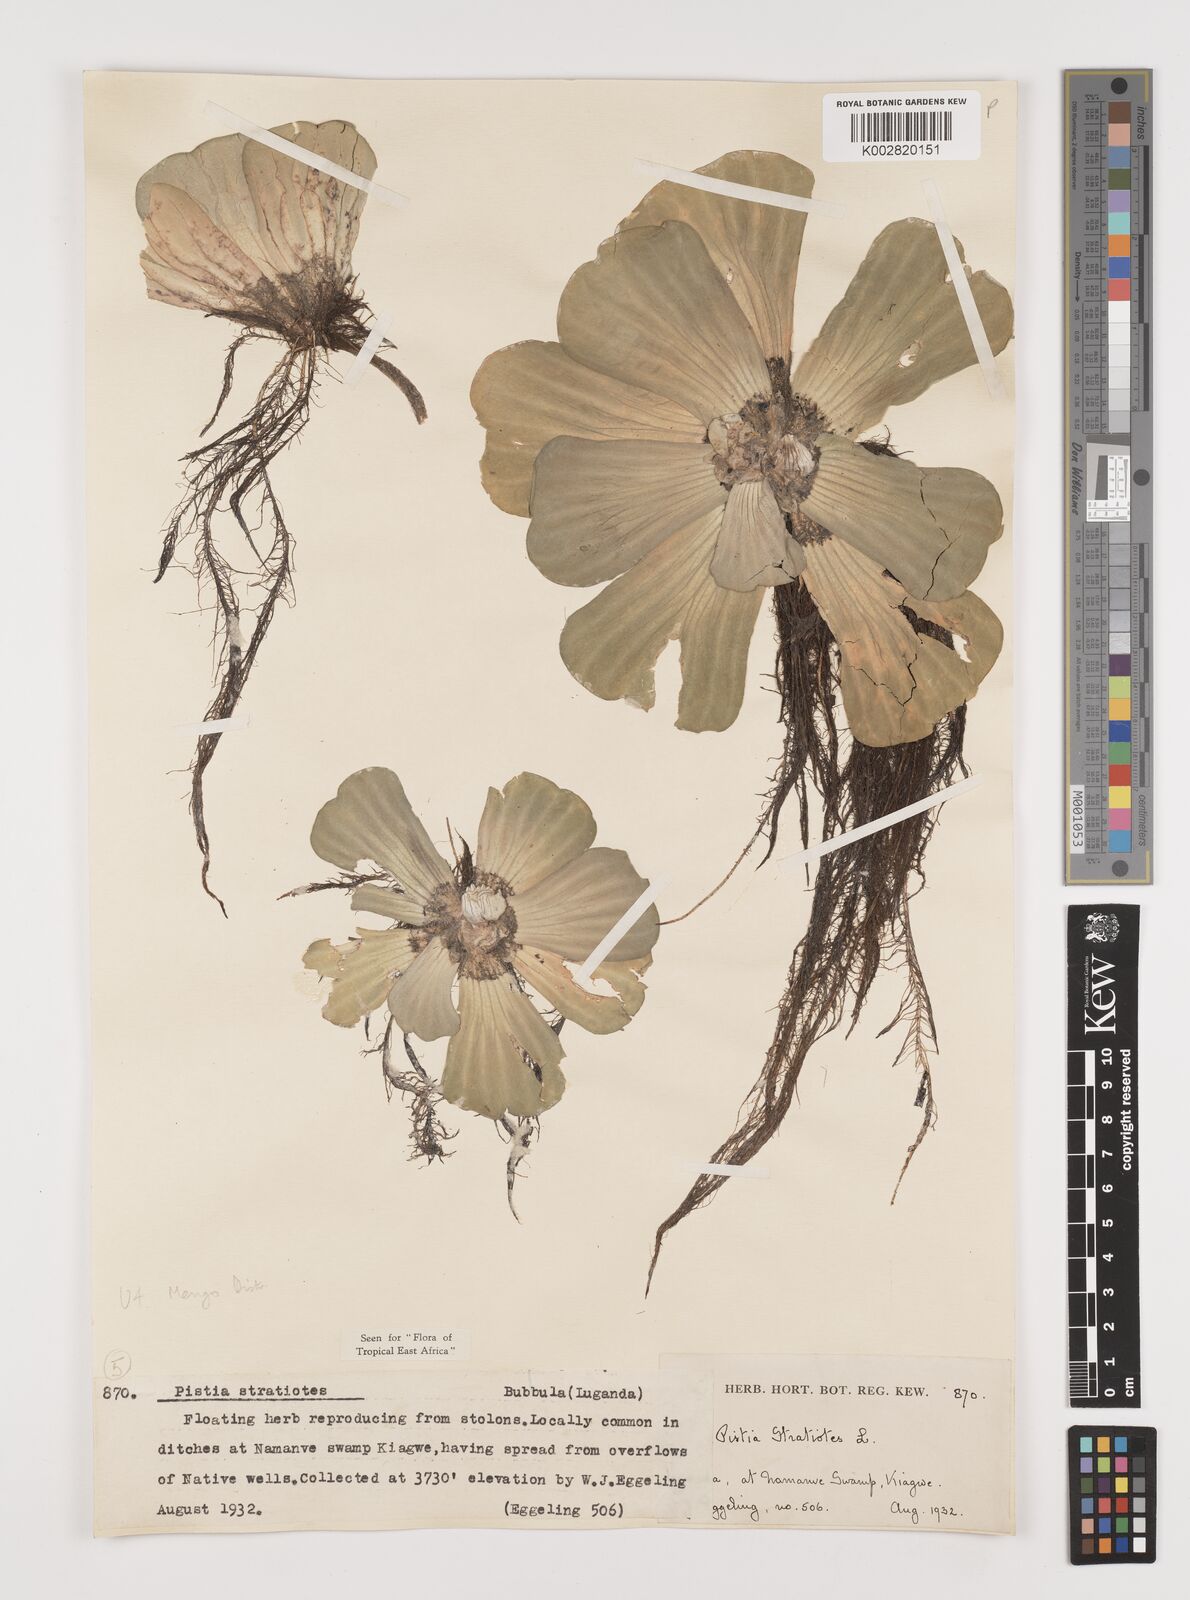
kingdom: Plantae
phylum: Tracheophyta
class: Liliopsida
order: Alismatales
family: Araceae
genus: Pistia
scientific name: Pistia stratiotes
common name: Water lettuce
